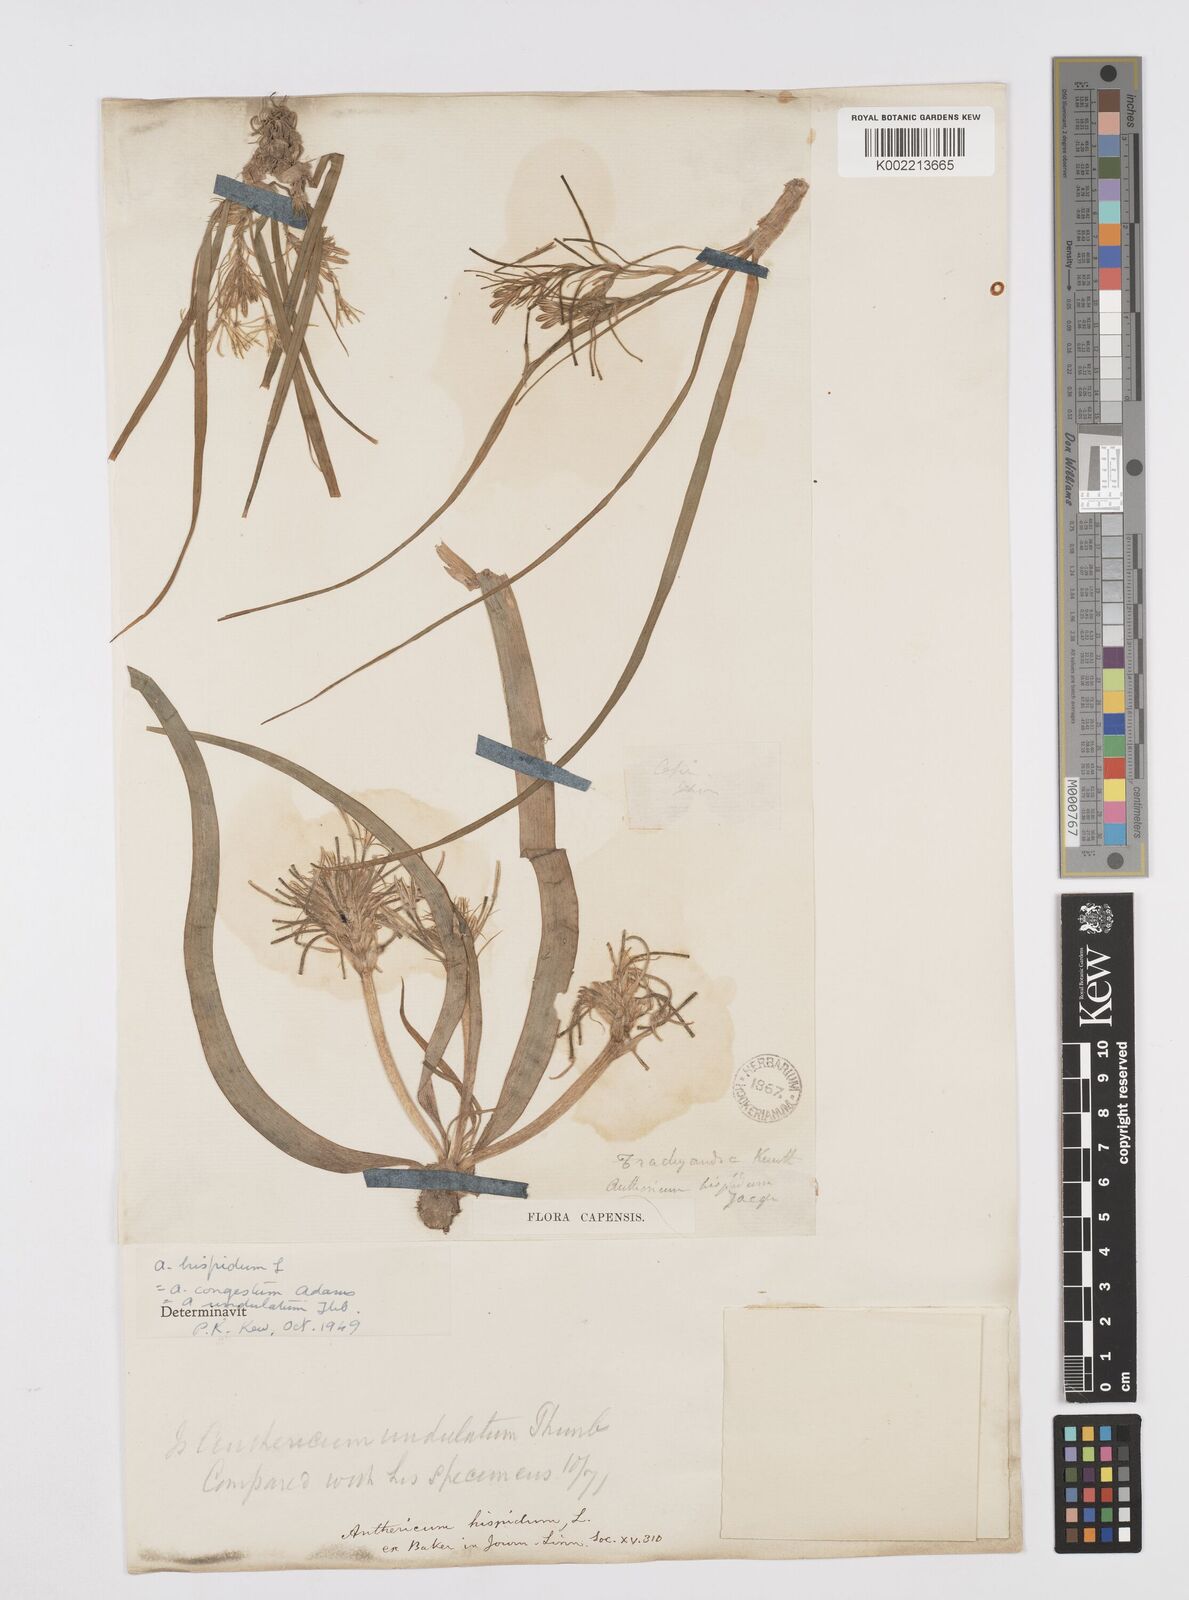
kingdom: Plantae
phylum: Tracheophyta
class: Liliopsida
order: Asparagales
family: Asphodelaceae
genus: Trachyandra
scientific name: Trachyandra hispida
